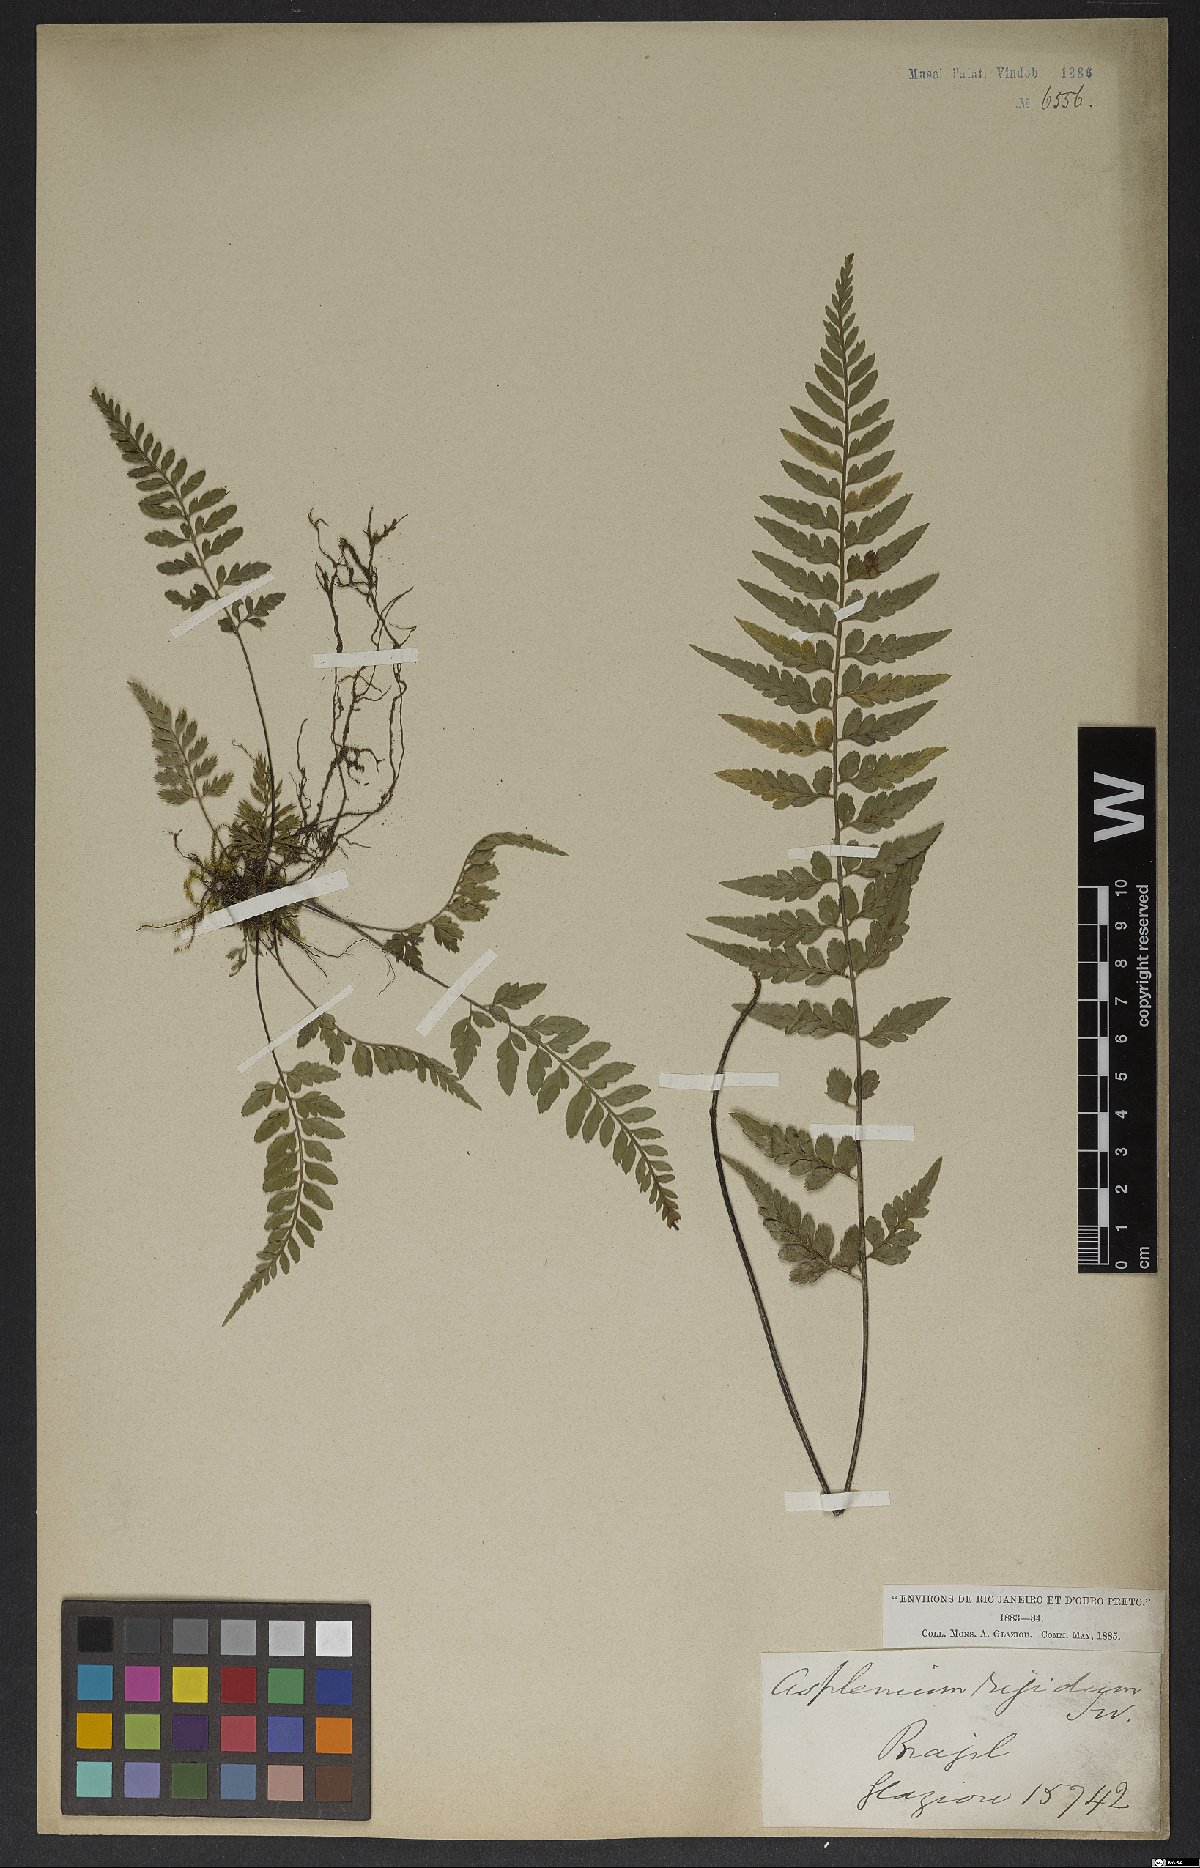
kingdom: Plantae
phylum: Tracheophyta
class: Polypodiopsida
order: Polypodiales
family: Aspleniaceae
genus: Asplenium
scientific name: Asplenium auritum
